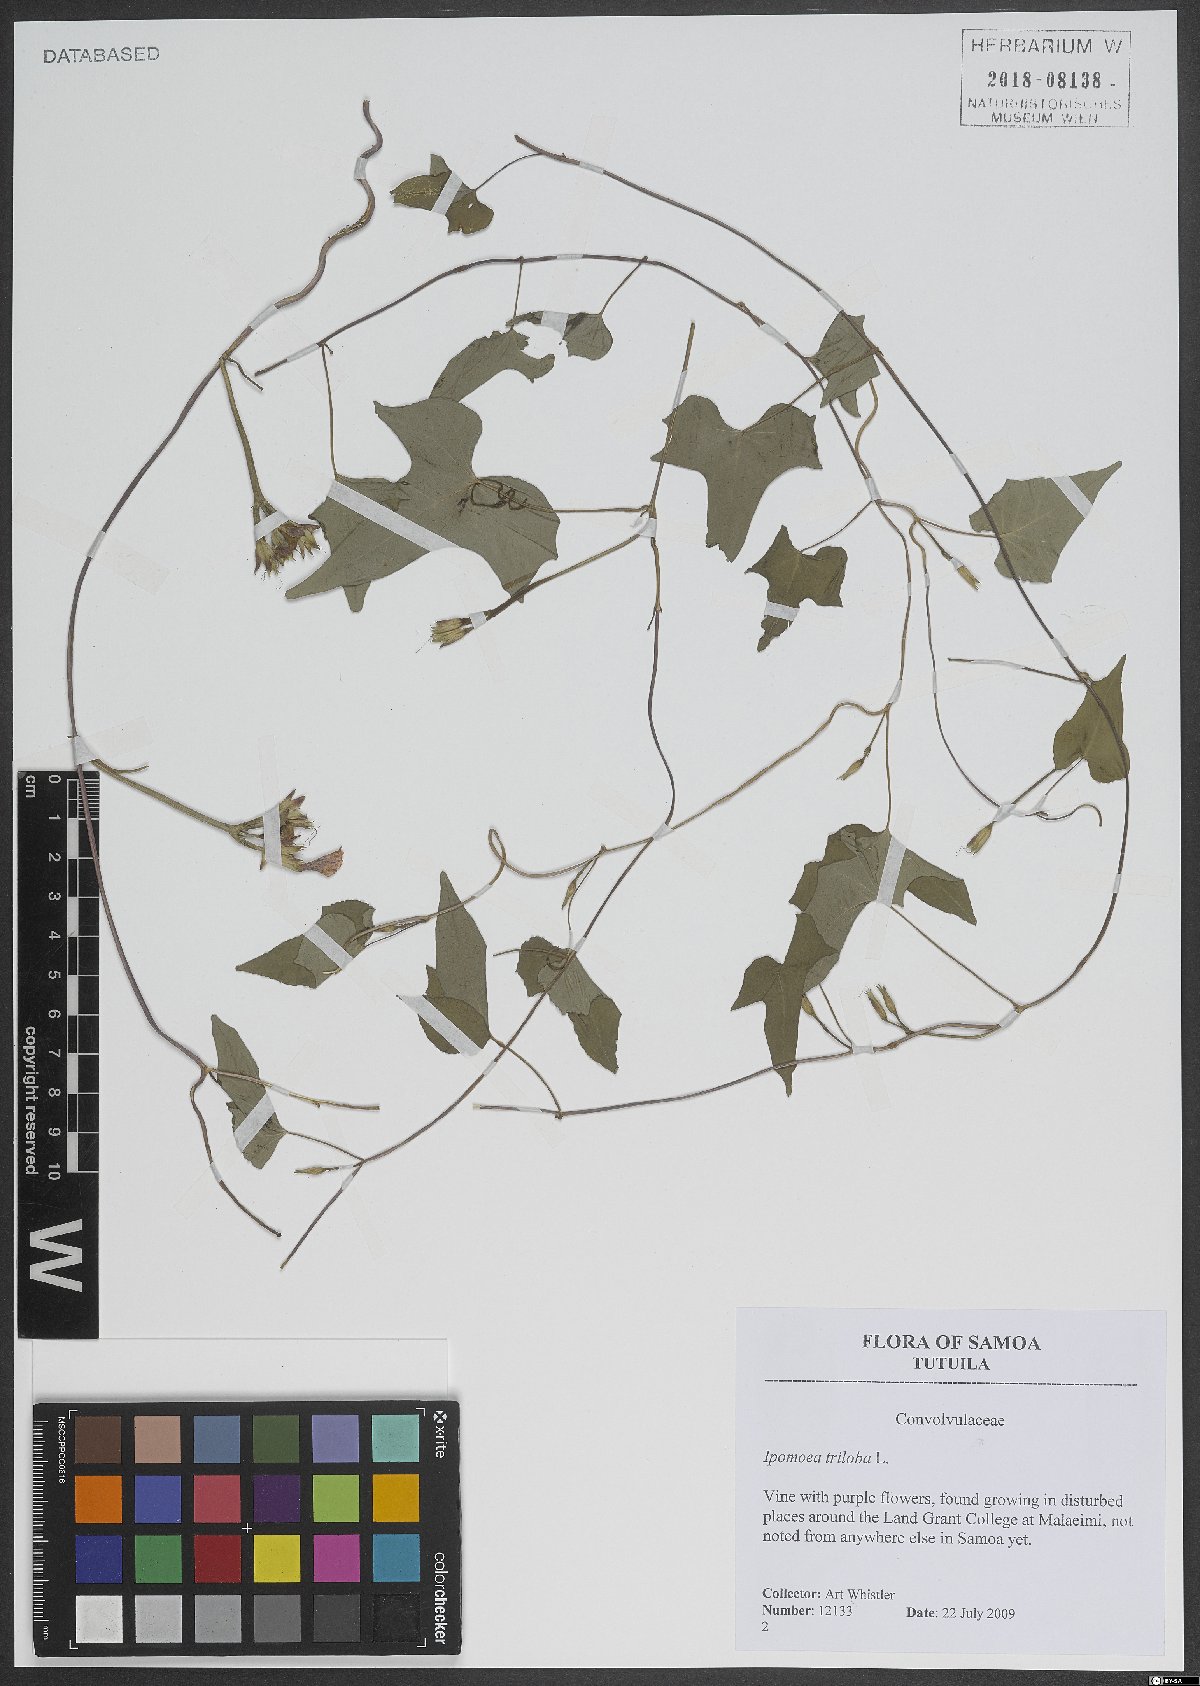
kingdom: Plantae
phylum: Tracheophyta
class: Magnoliopsida
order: Solanales
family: Convolvulaceae
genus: Ipomoea
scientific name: Ipomoea triloba
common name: Little-bell
